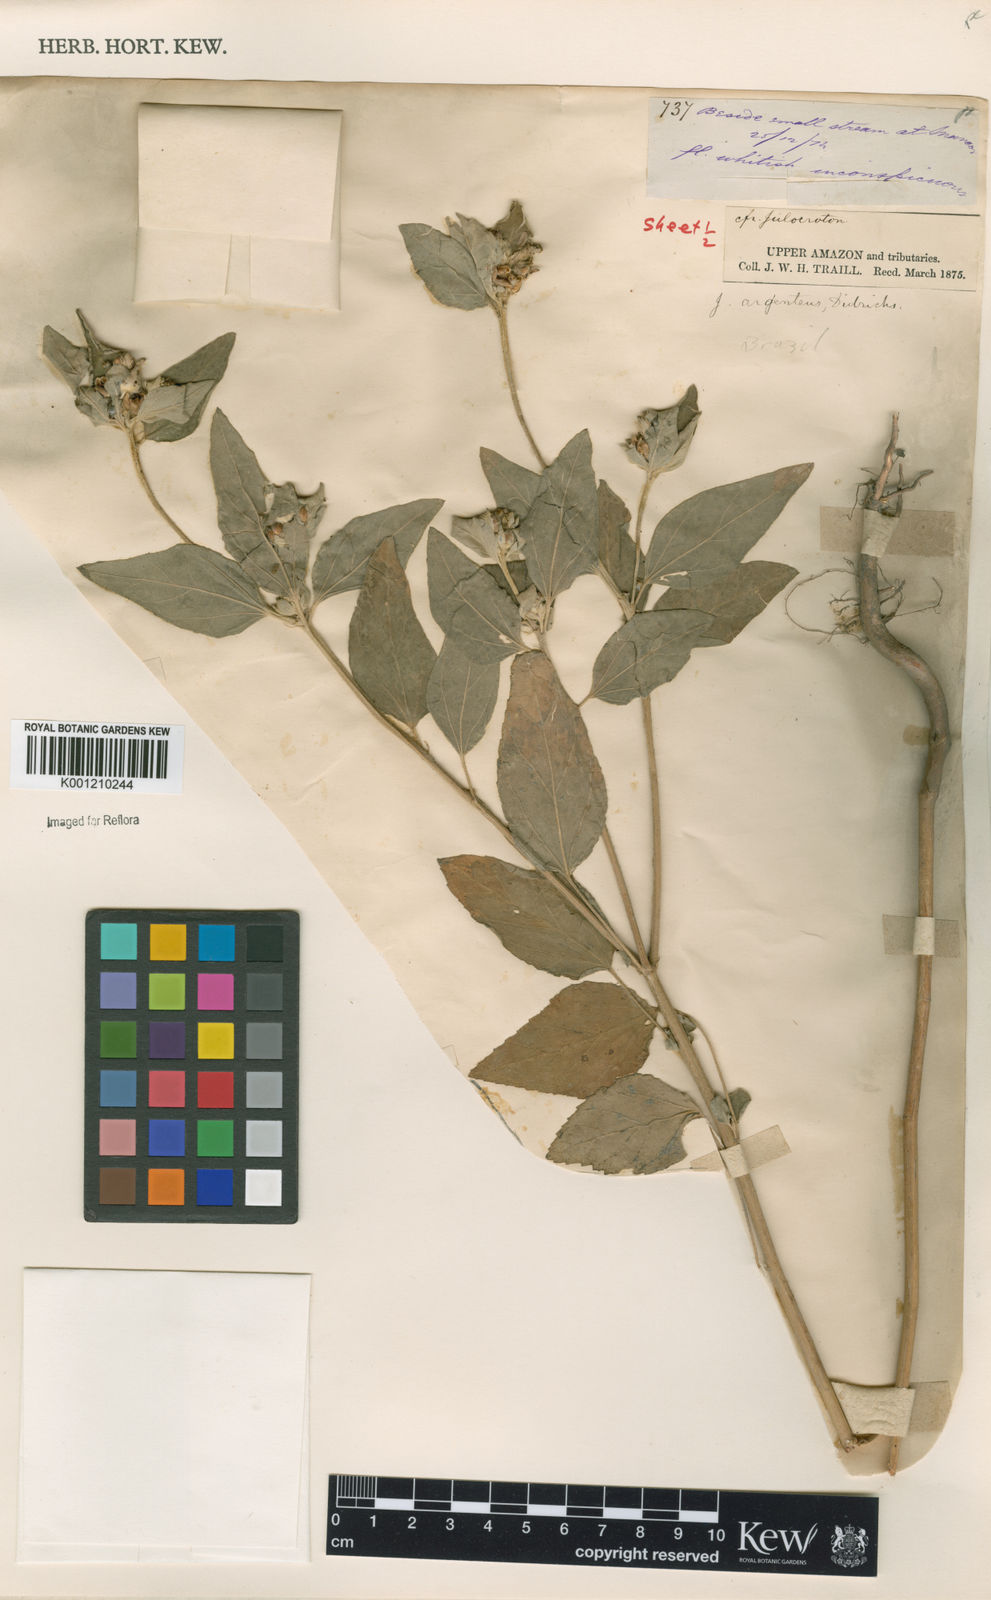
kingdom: Plantae
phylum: Tracheophyta
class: Magnoliopsida
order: Malpighiales
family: Euphorbiaceae
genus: Croton
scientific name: Croton
